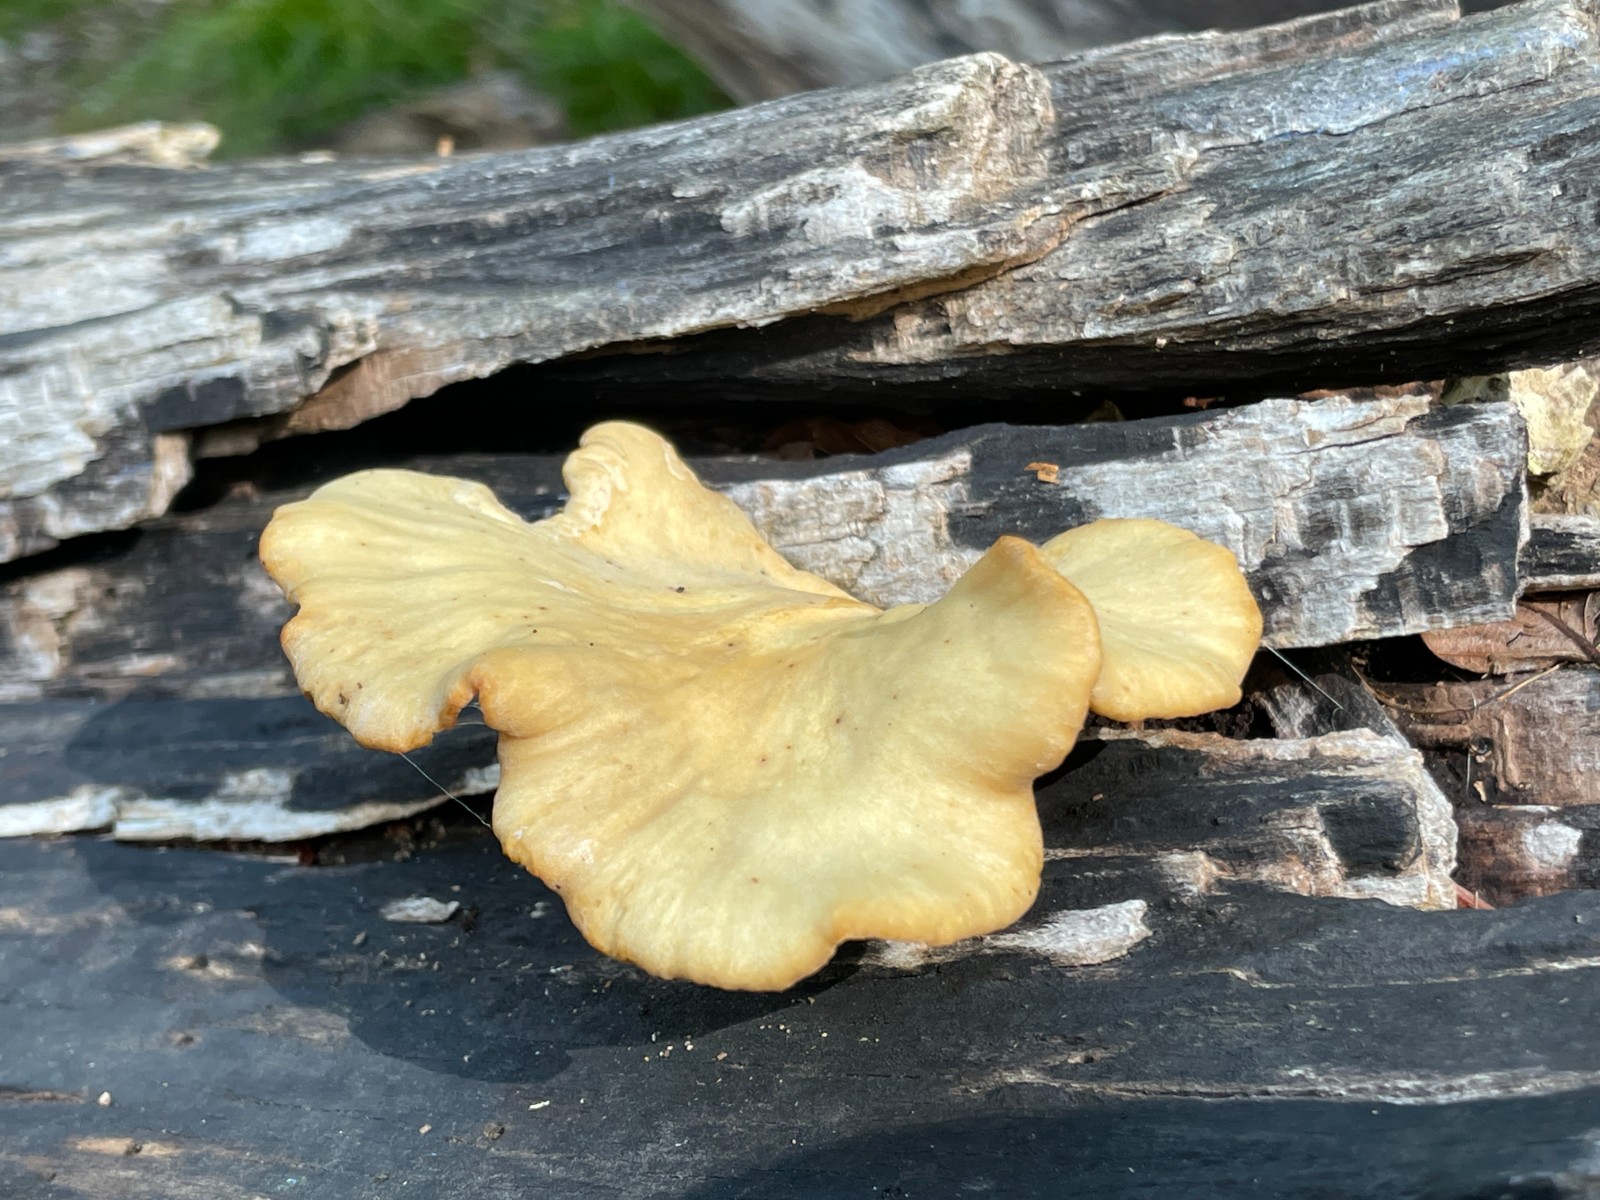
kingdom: Fungi
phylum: Basidiomycota
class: Agaricomycetes
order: Polyporales
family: Polyporaceae
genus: Cerioporus
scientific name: Cerioporus varius
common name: foranderlig stilkporesvamp
